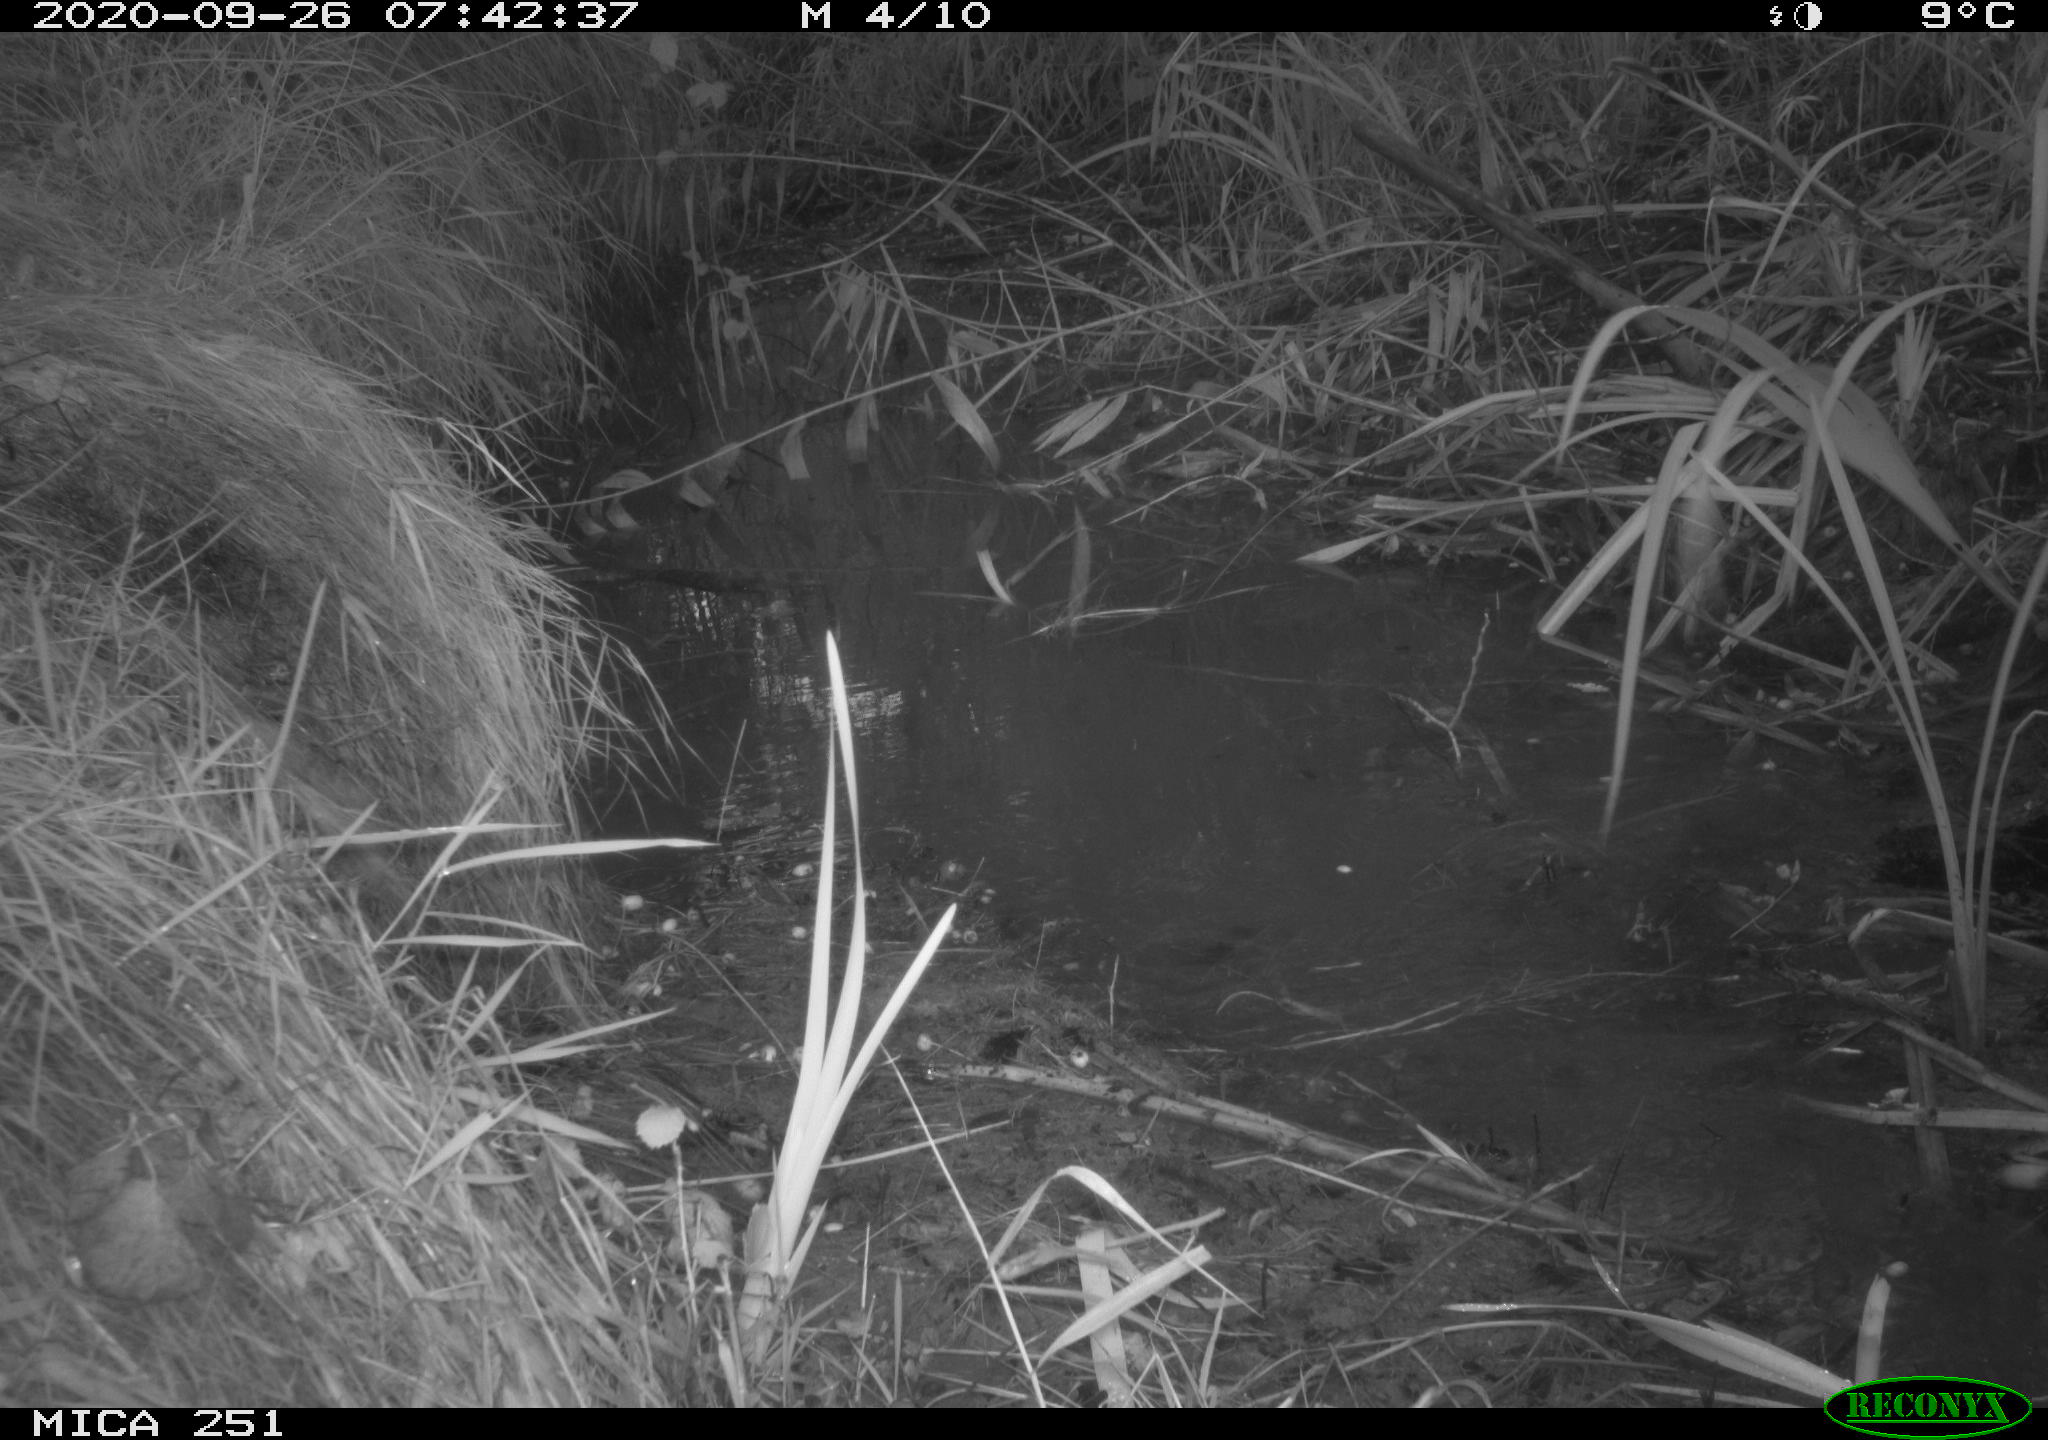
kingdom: Animalia
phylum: Chordata
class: Mammalia
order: Artiodactyla
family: Suidae
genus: Sus
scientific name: Sus scrofa
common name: Wild boar
